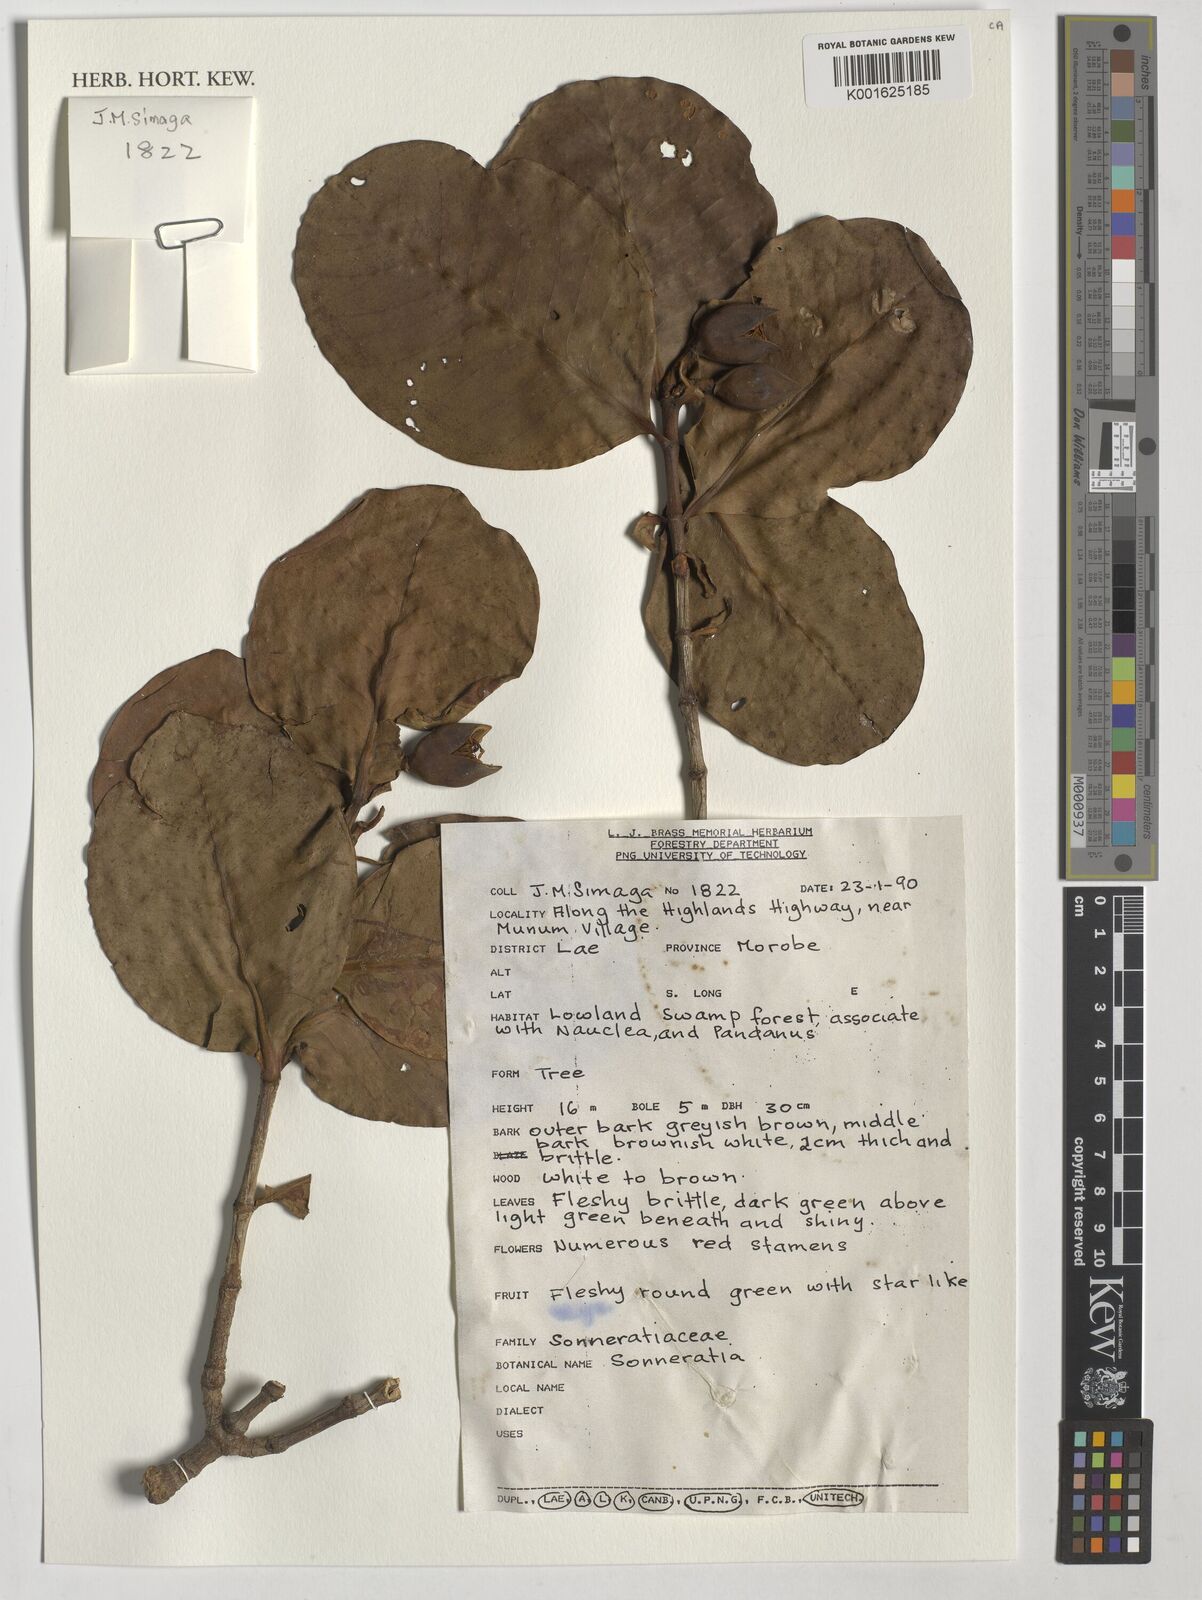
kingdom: Plantae
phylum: Tracheophyta
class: Magnoliopsida
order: Myrtales
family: Lythraceae
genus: Sonneratia
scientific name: Sonneratia
